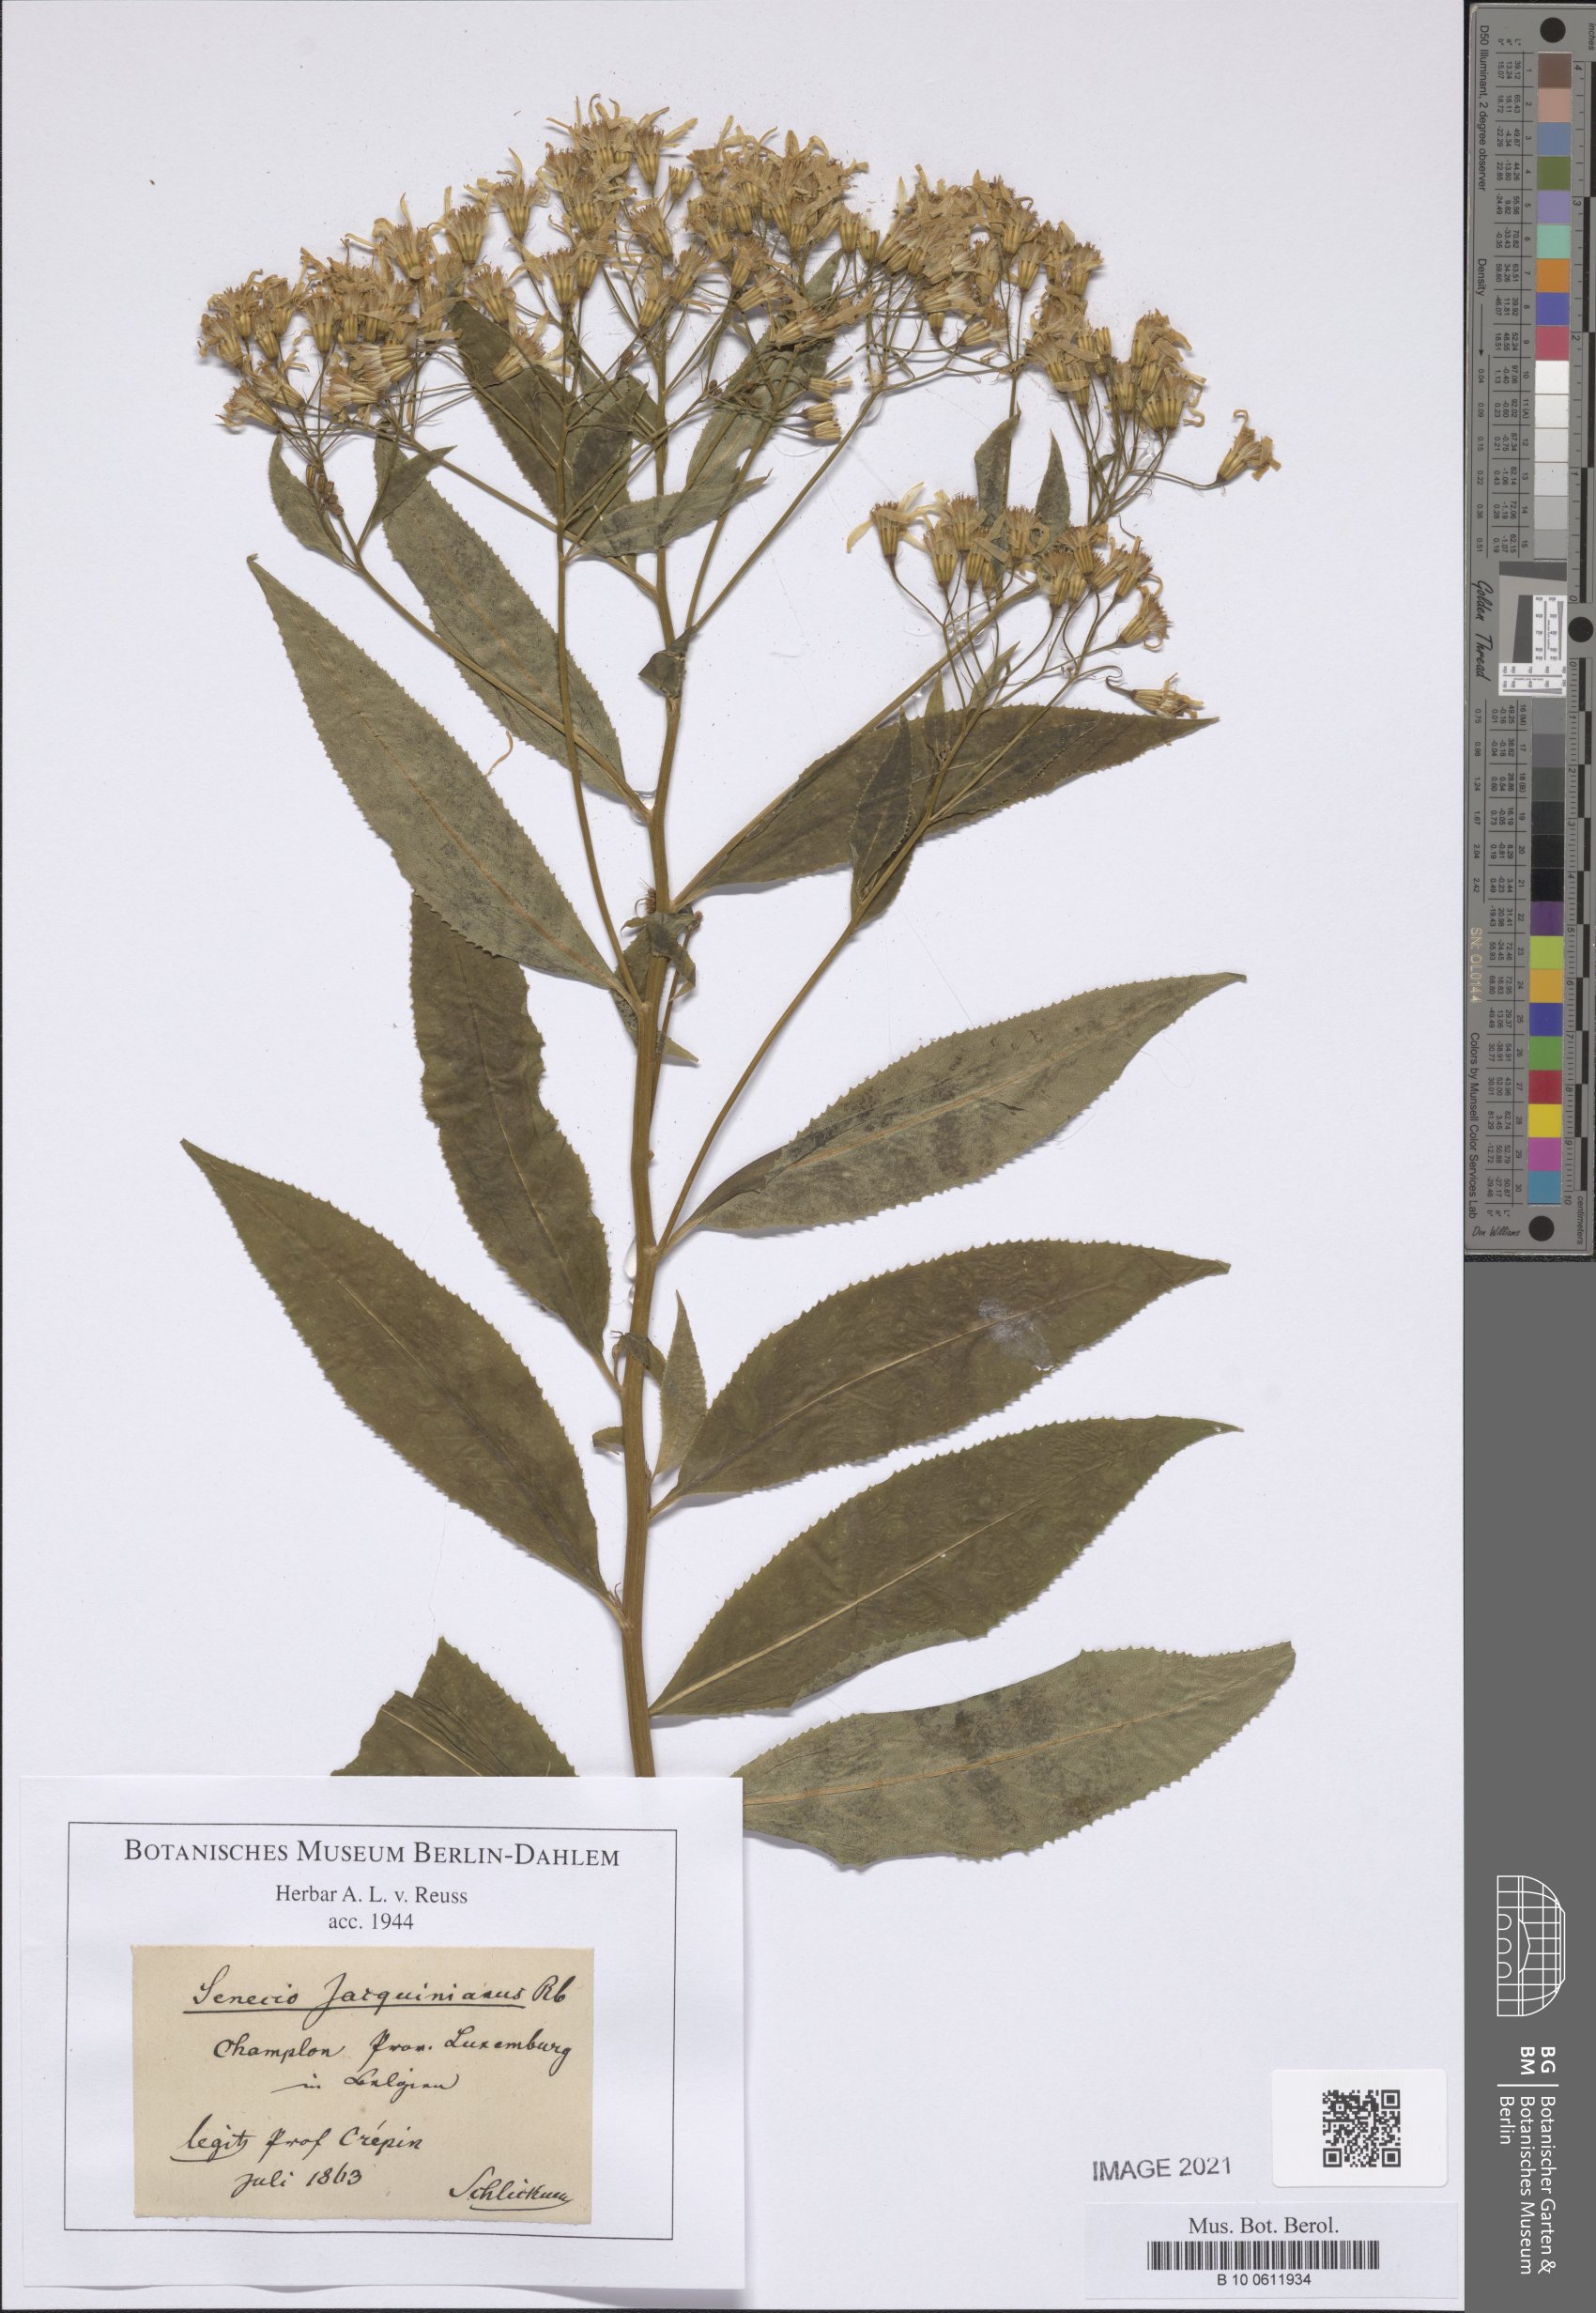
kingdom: Plantae
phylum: Tracheophyta
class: Magnoliopsida
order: Asterales
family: Asteraceae
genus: Senecio
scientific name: Senecio germanicus
